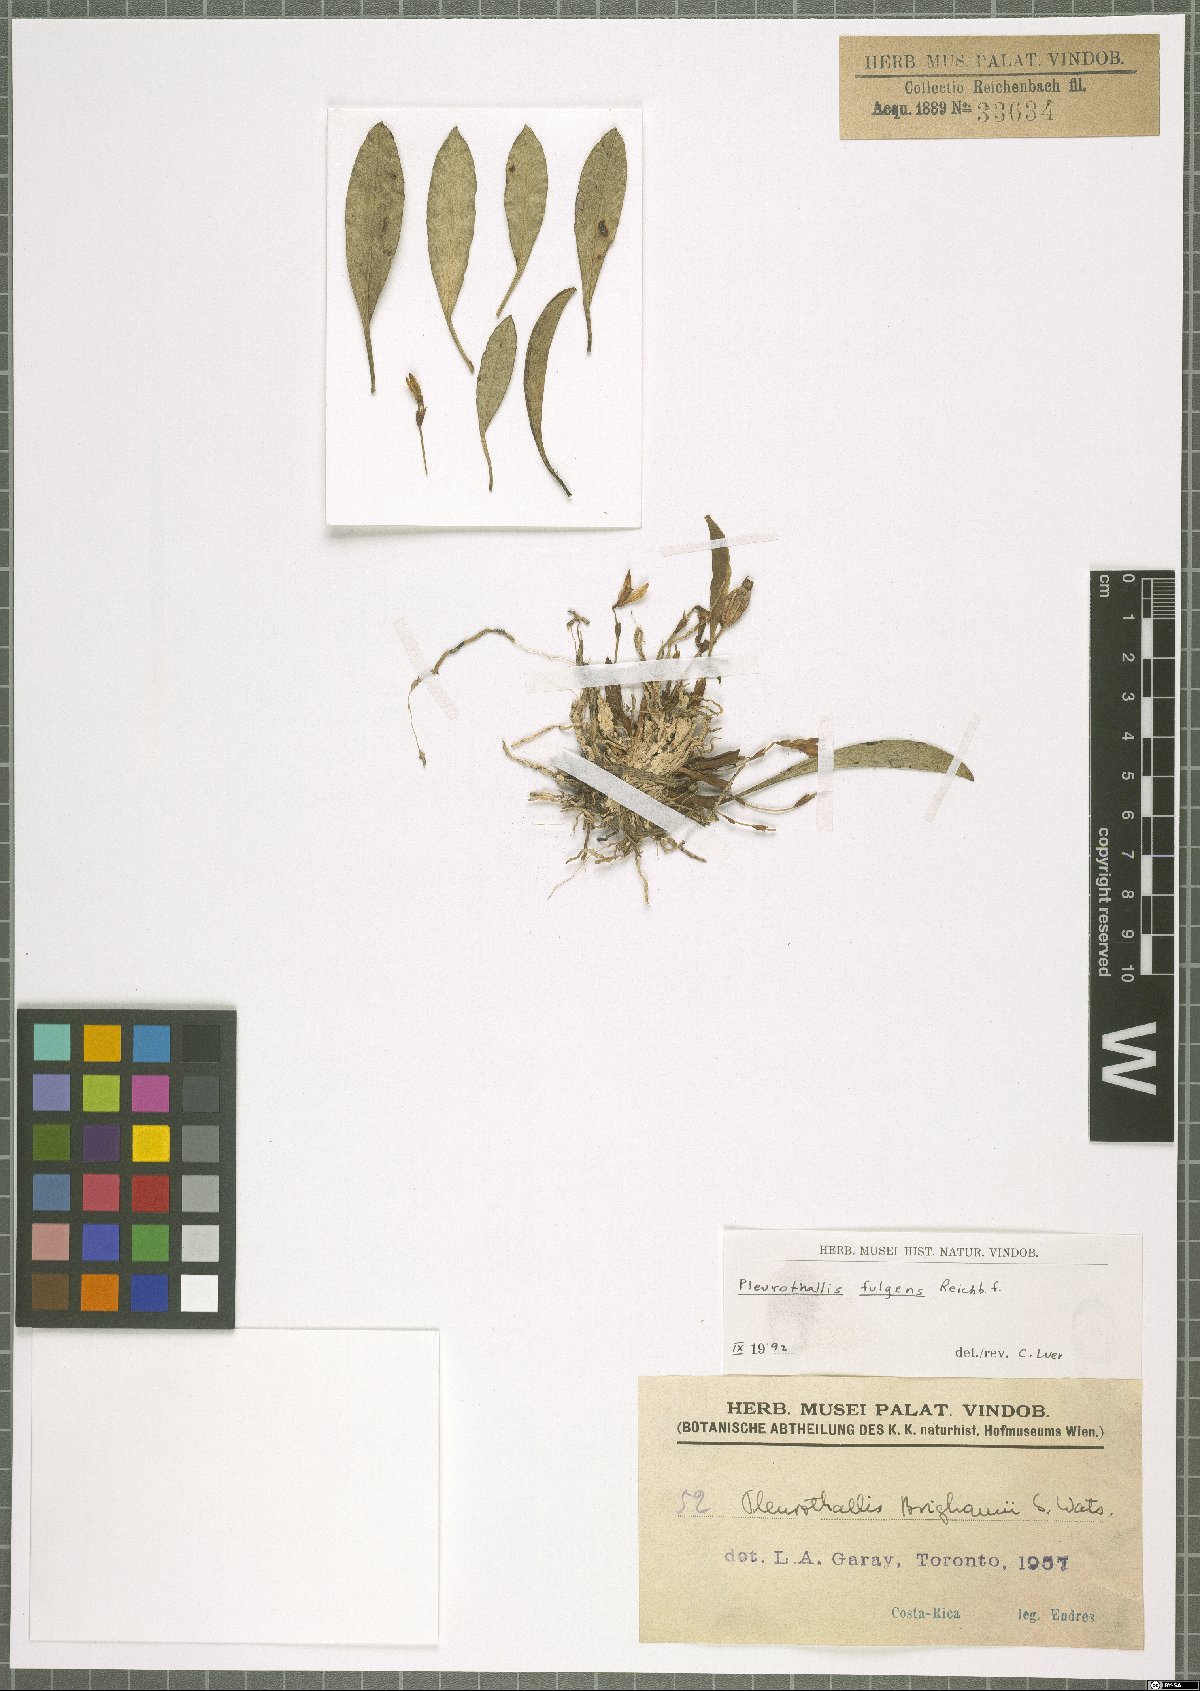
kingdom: Plantae
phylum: Tracheophyta
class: Liliopsida
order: Asparagales
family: Orchidaceae
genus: Specklinia
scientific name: Specklinia fulgens
